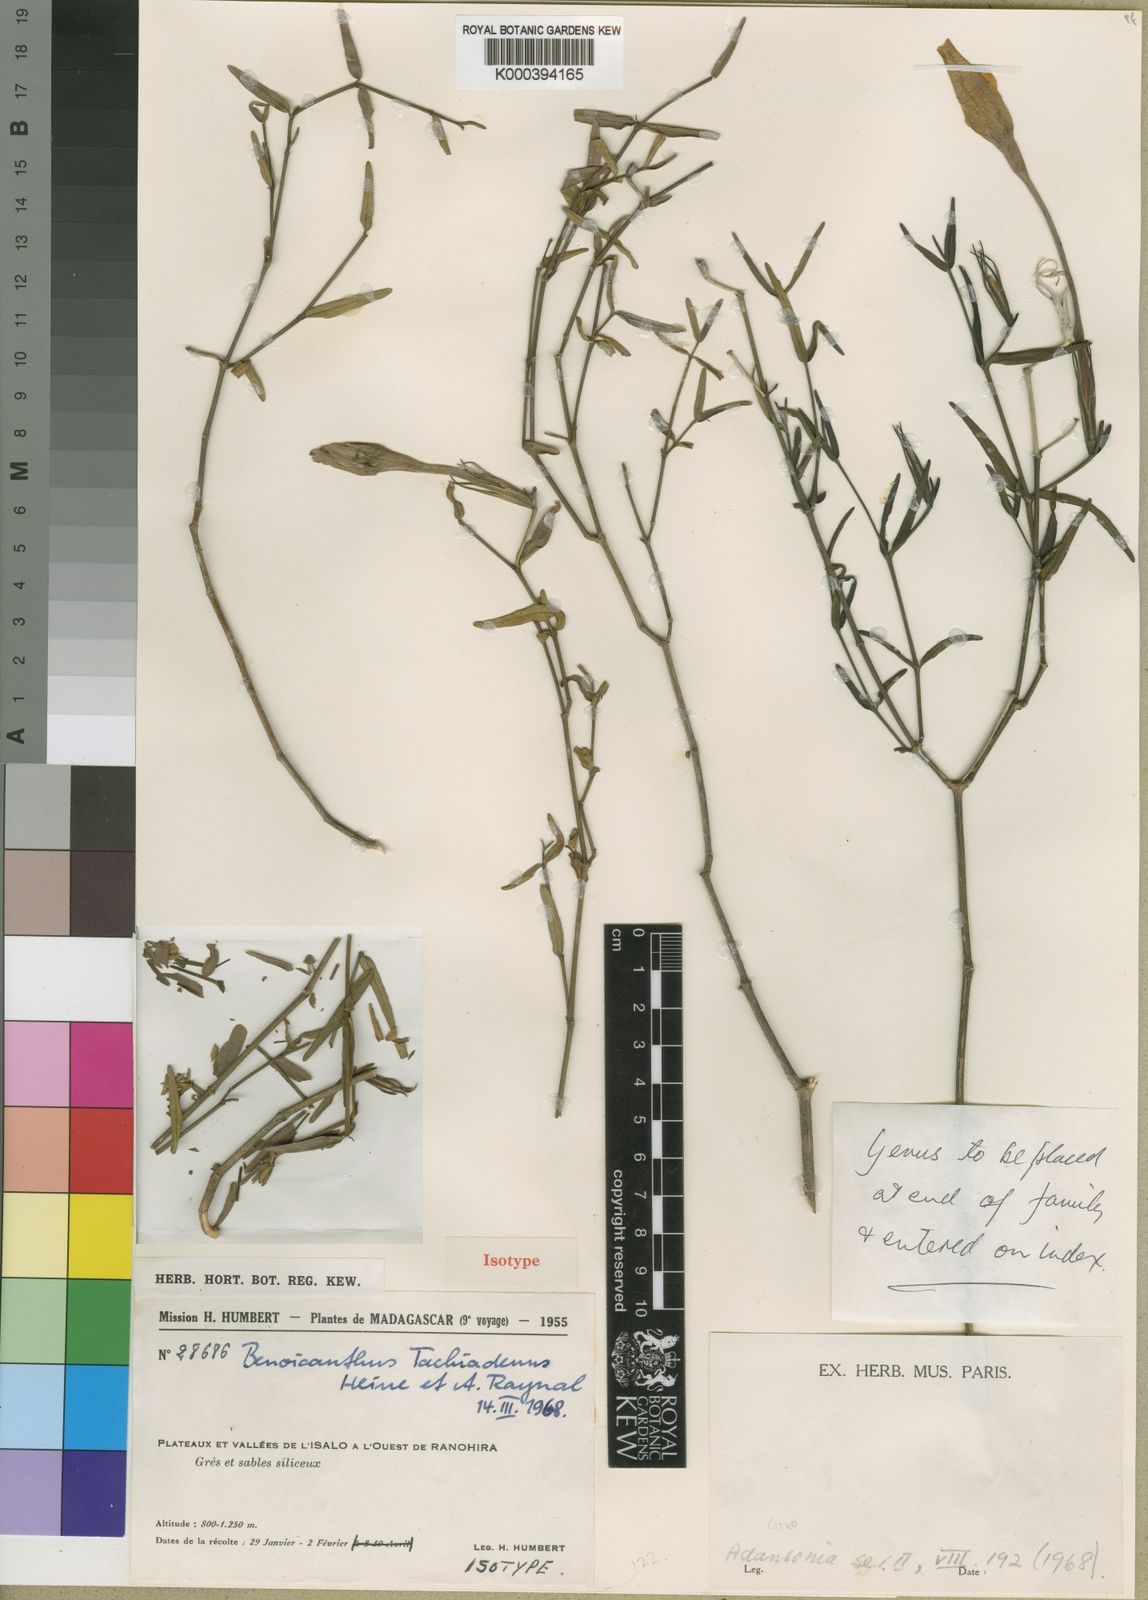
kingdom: Plantae
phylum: Tracheophyta
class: Magnoliopsida
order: Lamiales
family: Acanthaceae
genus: Ruellia
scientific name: Ruellia tachiadena
